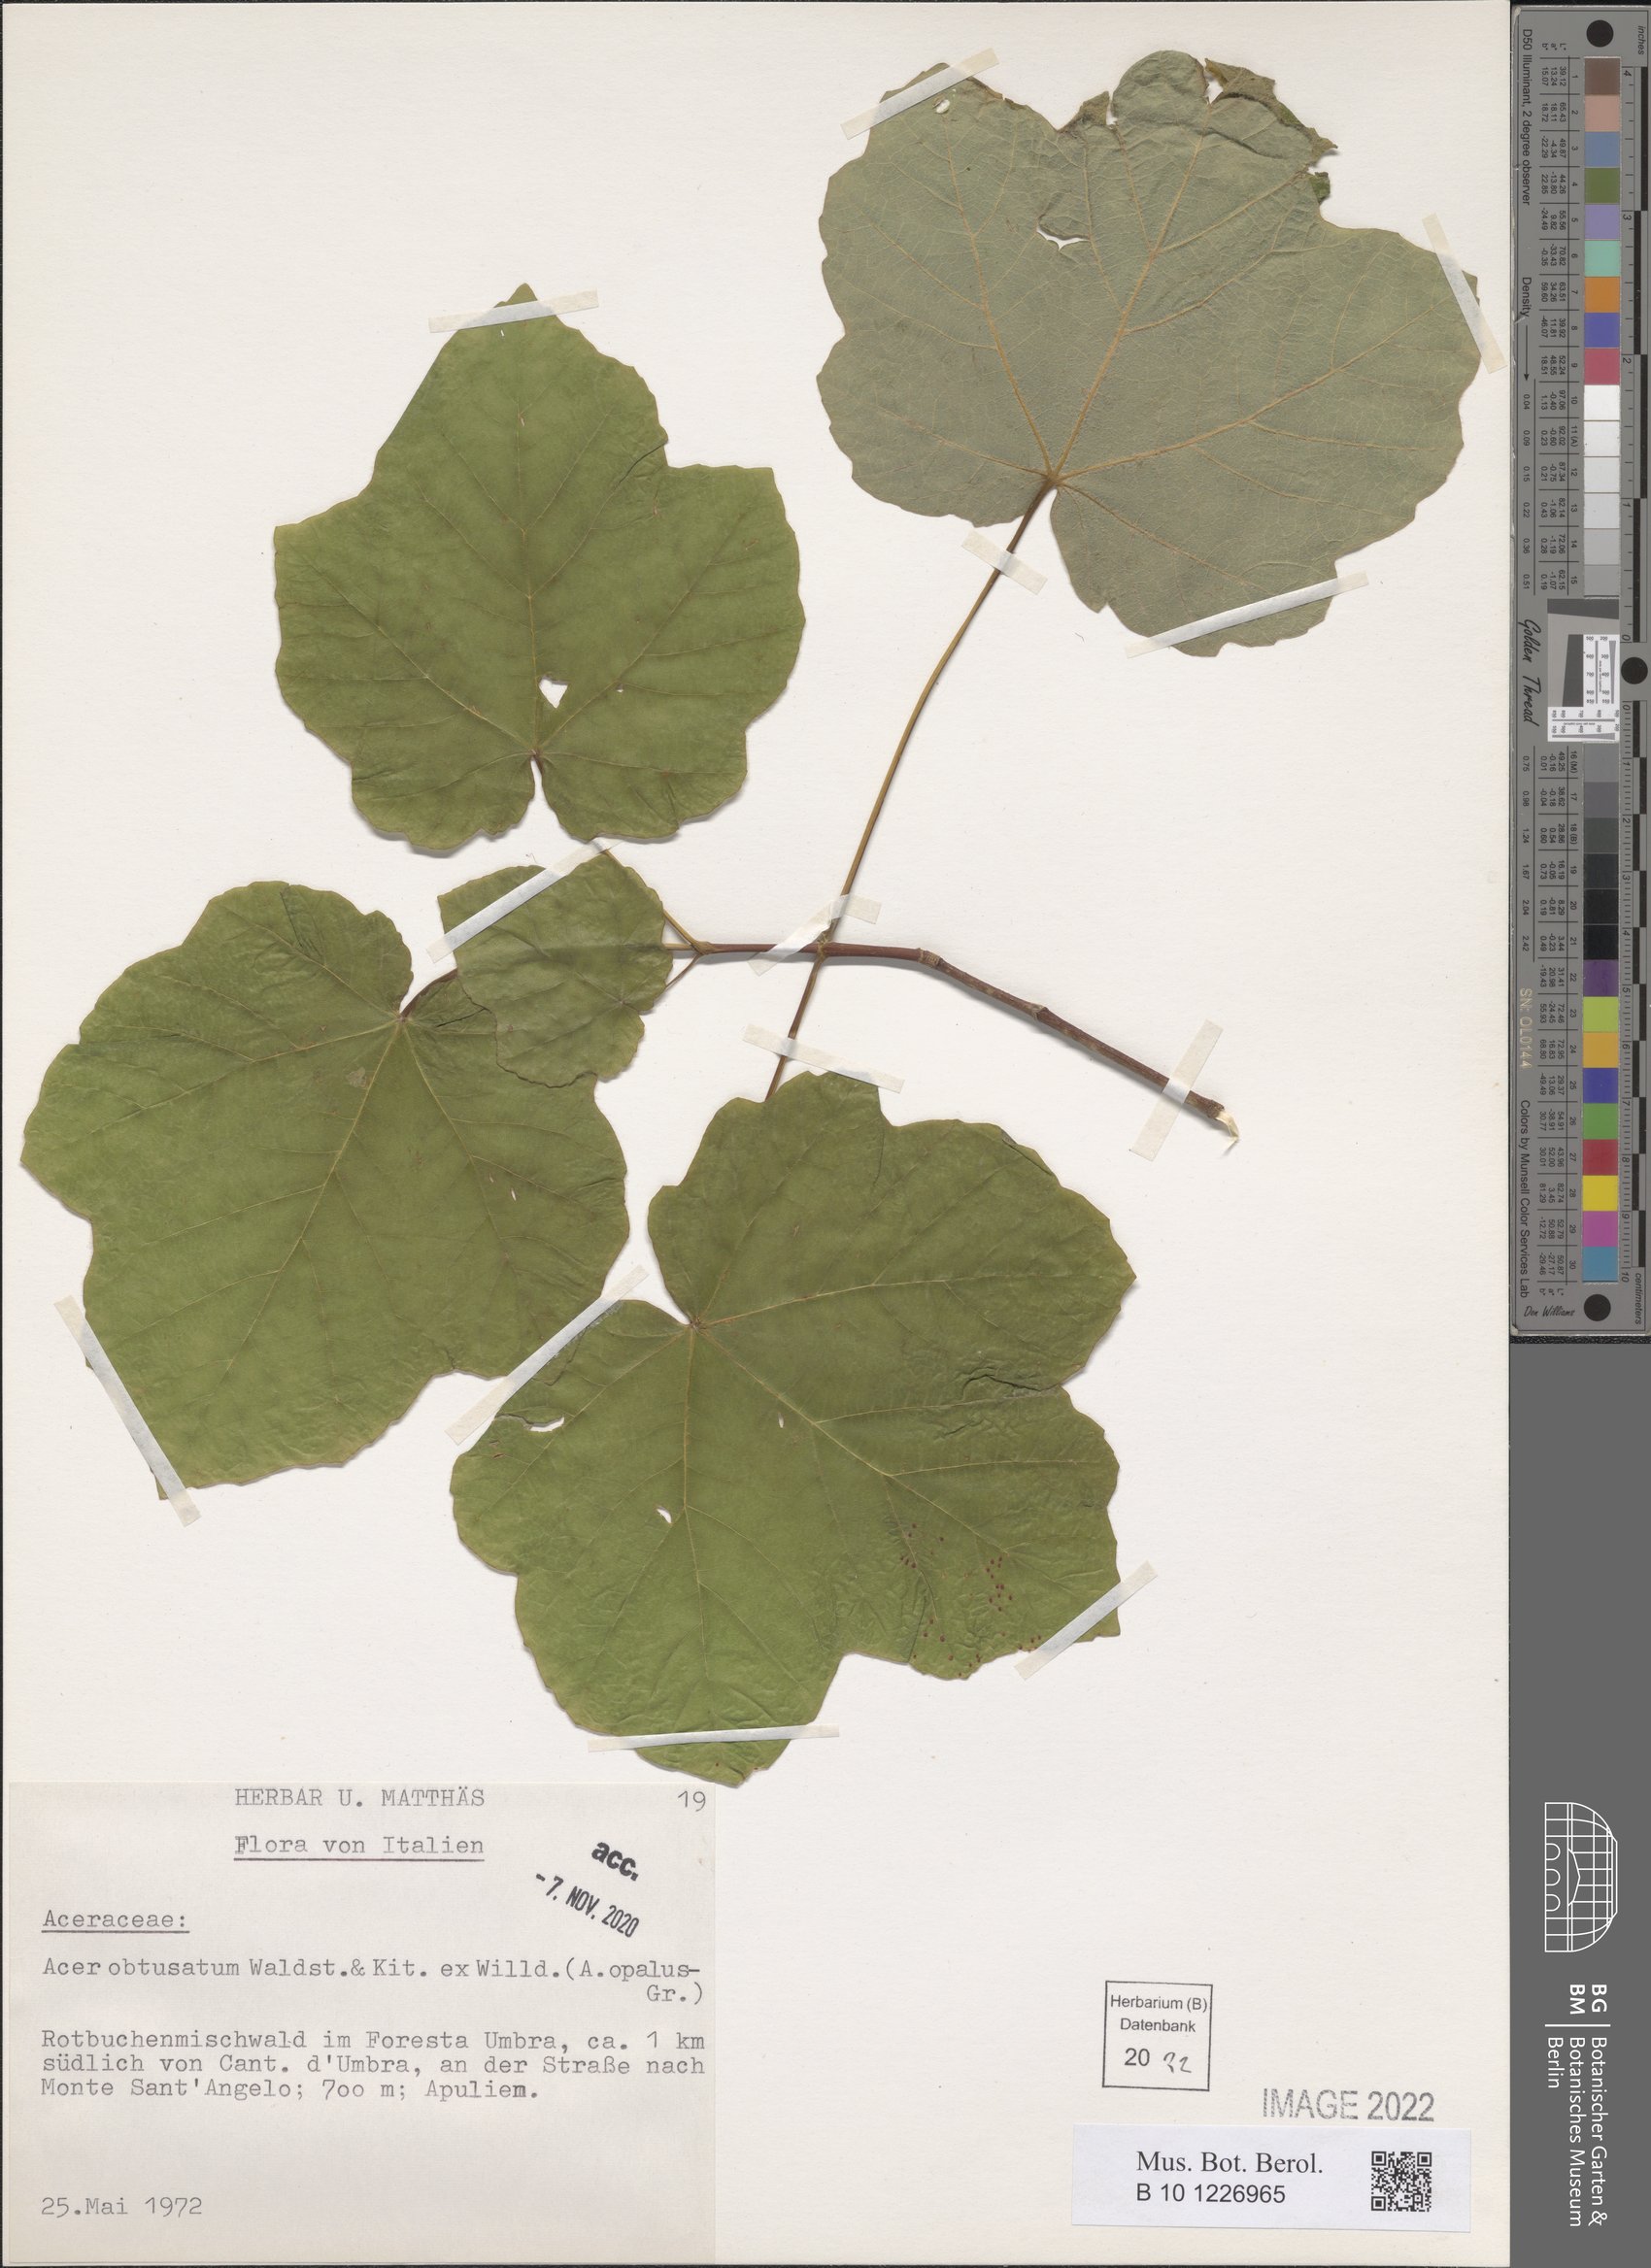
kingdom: Plantae
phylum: Tracheophyta
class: Magnoliopsida
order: Sapindales
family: Sapindaceae
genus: Acer
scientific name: Acer obtusatum
